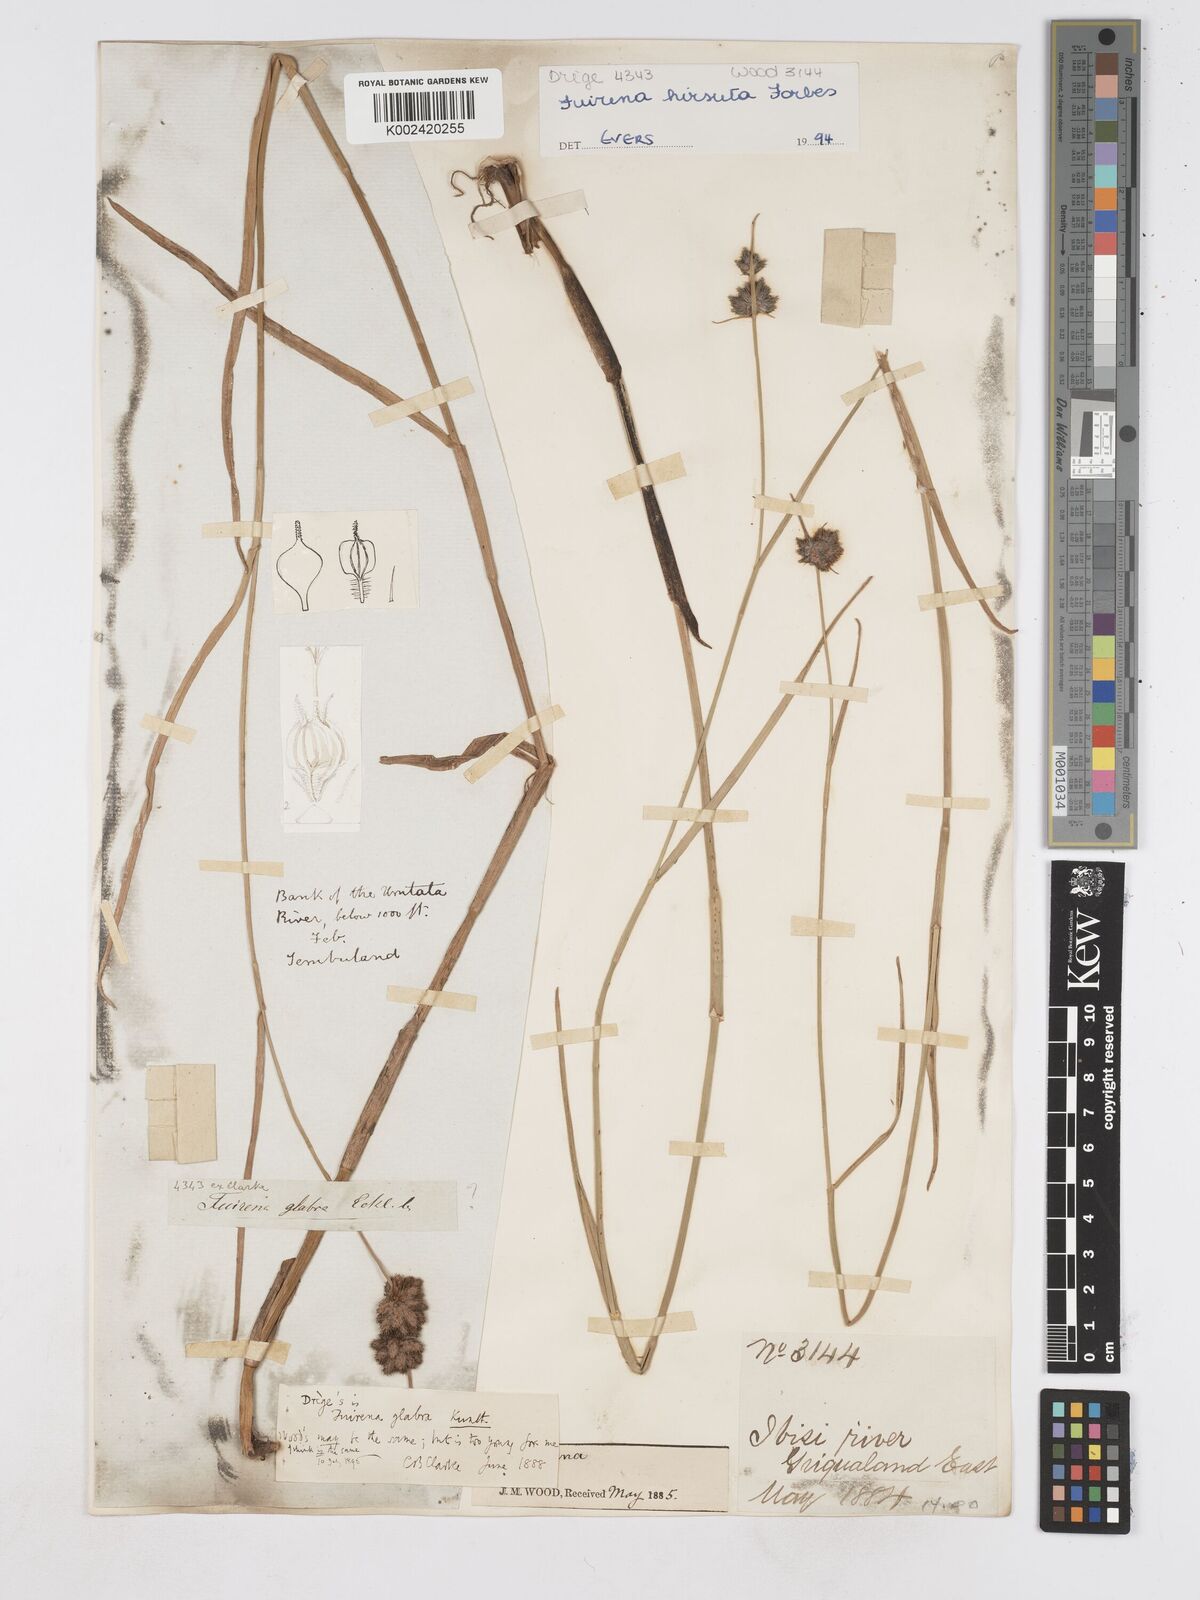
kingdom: Plantae
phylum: Tracheophyta
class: Liliopsida
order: Poales
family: Cyperaceae
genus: Fuirena
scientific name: Fuirena hirsuta
